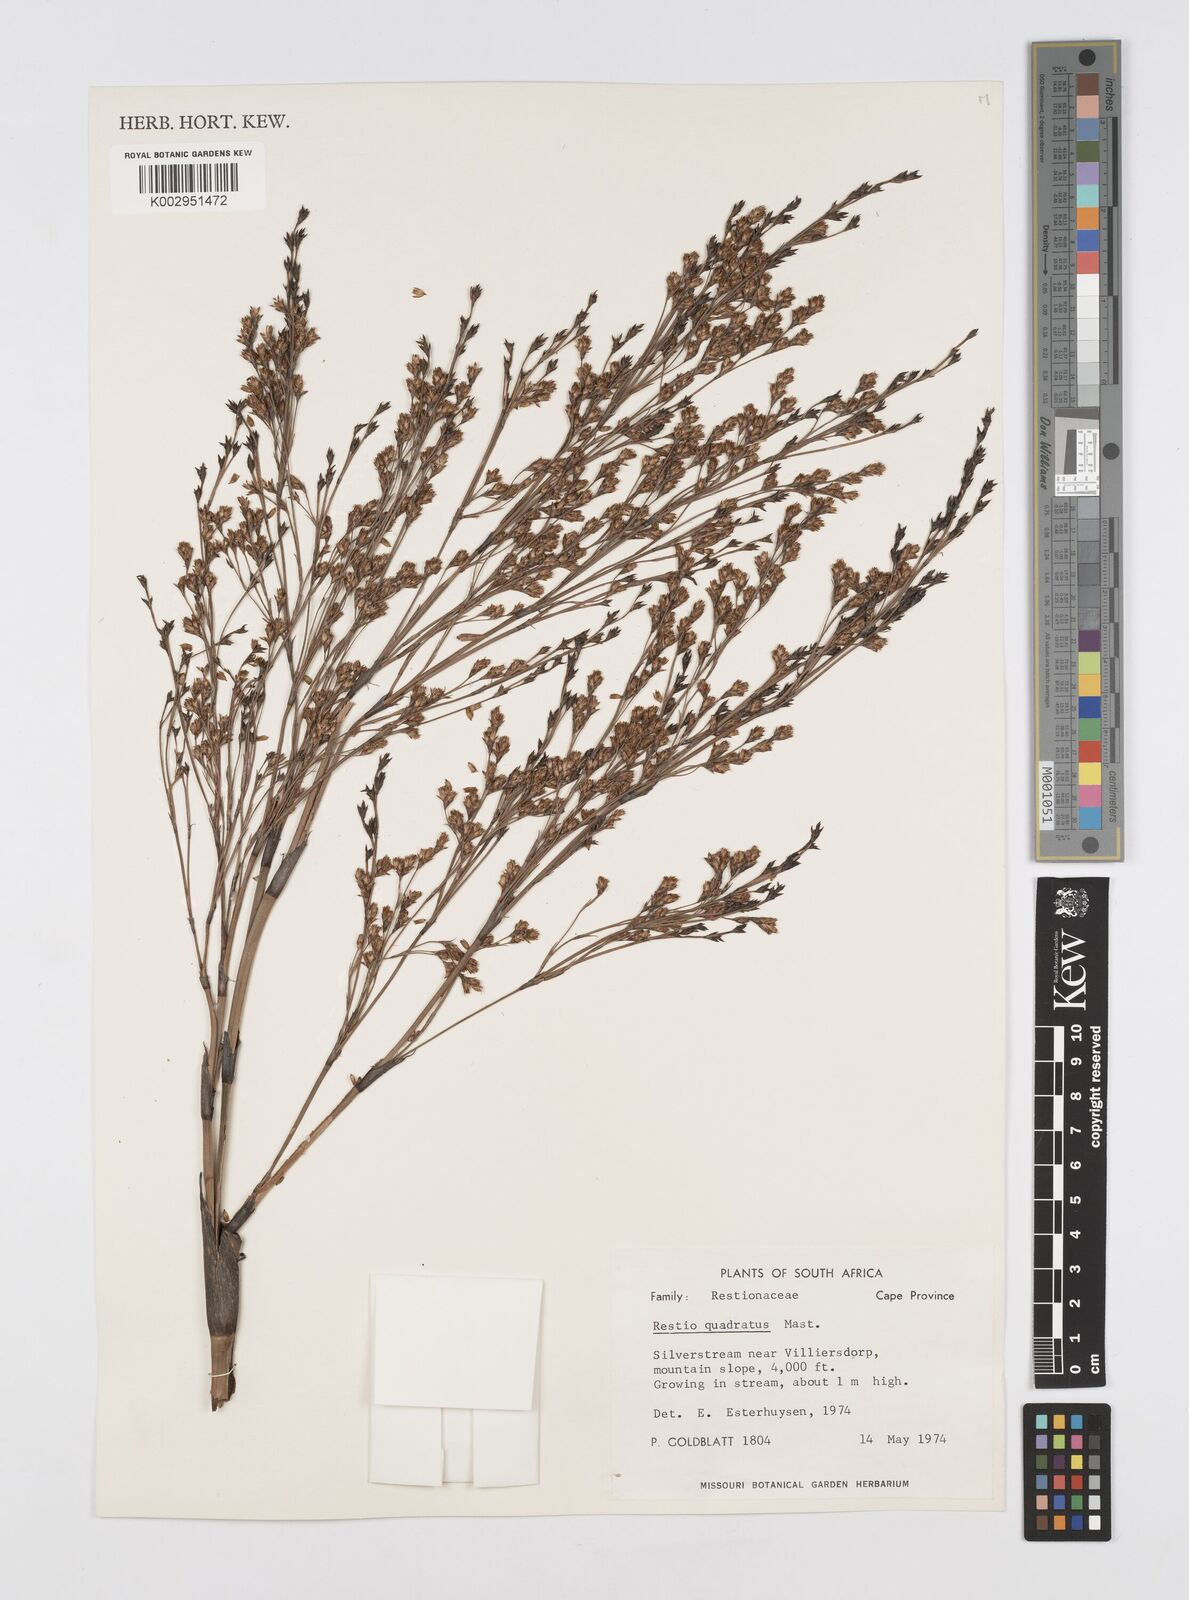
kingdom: Plantae
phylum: Tracheophyta
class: Liliopsida
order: Poales
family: Restionaceae
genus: Restio
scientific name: Restio quadratus
